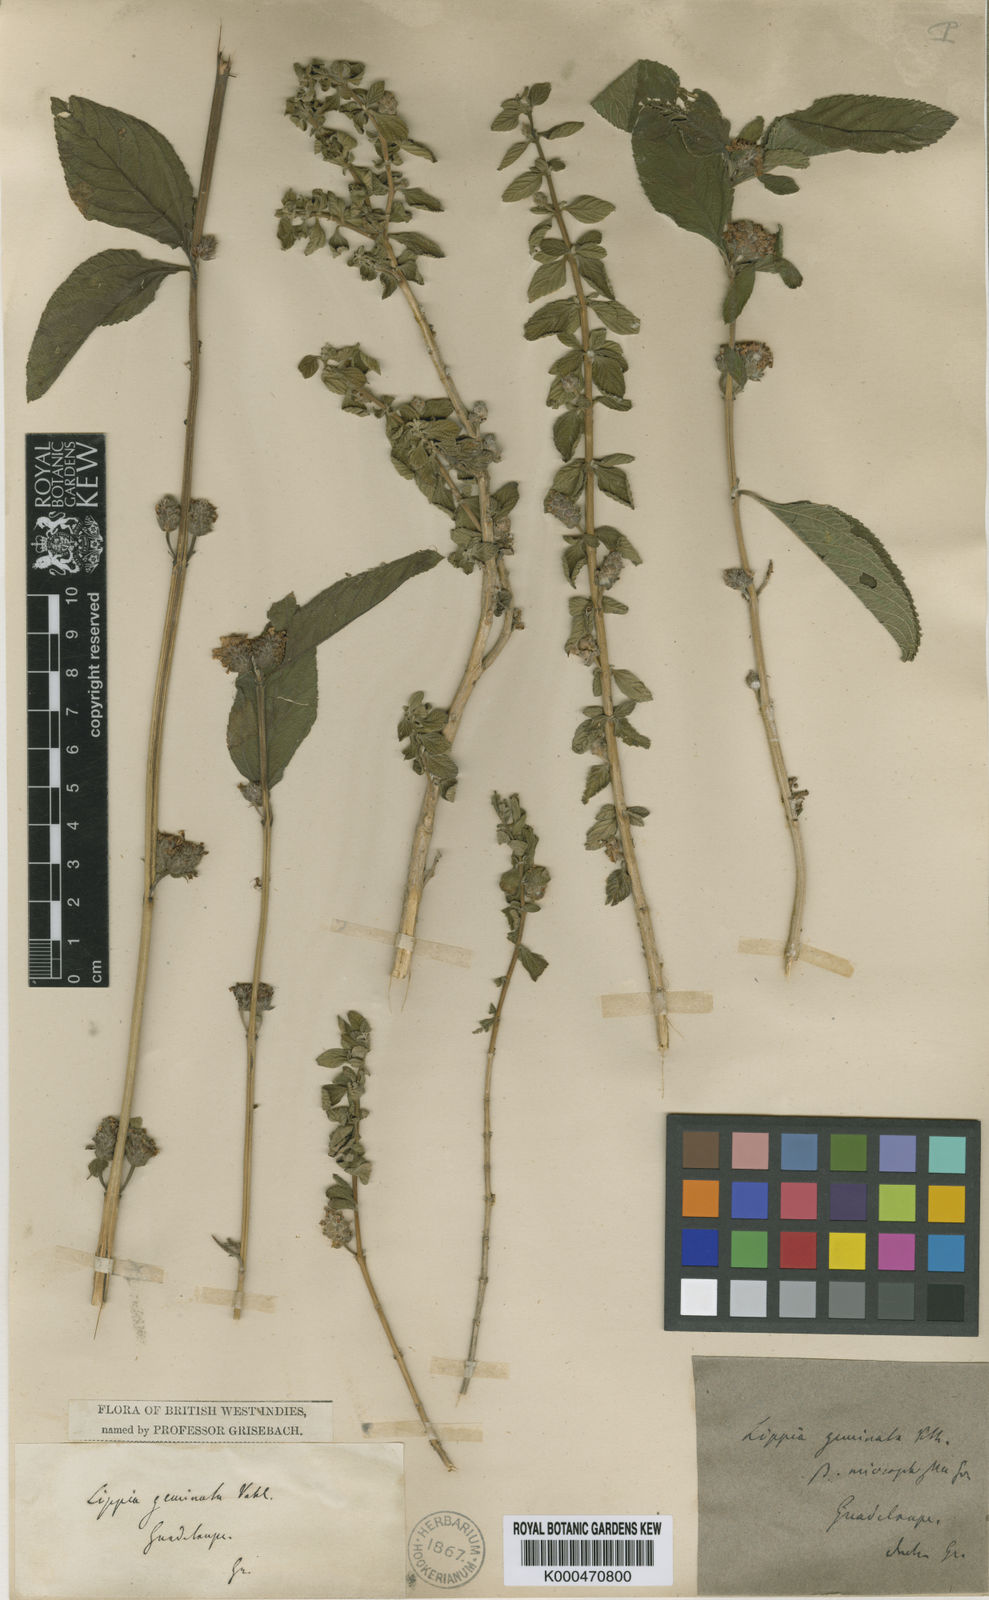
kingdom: Plantae
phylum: Tracheophyta
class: Magnoliopsida
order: Lamiales
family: Verbenaceae
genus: Lippia
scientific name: Lippia alba
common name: Bushy matgrass
